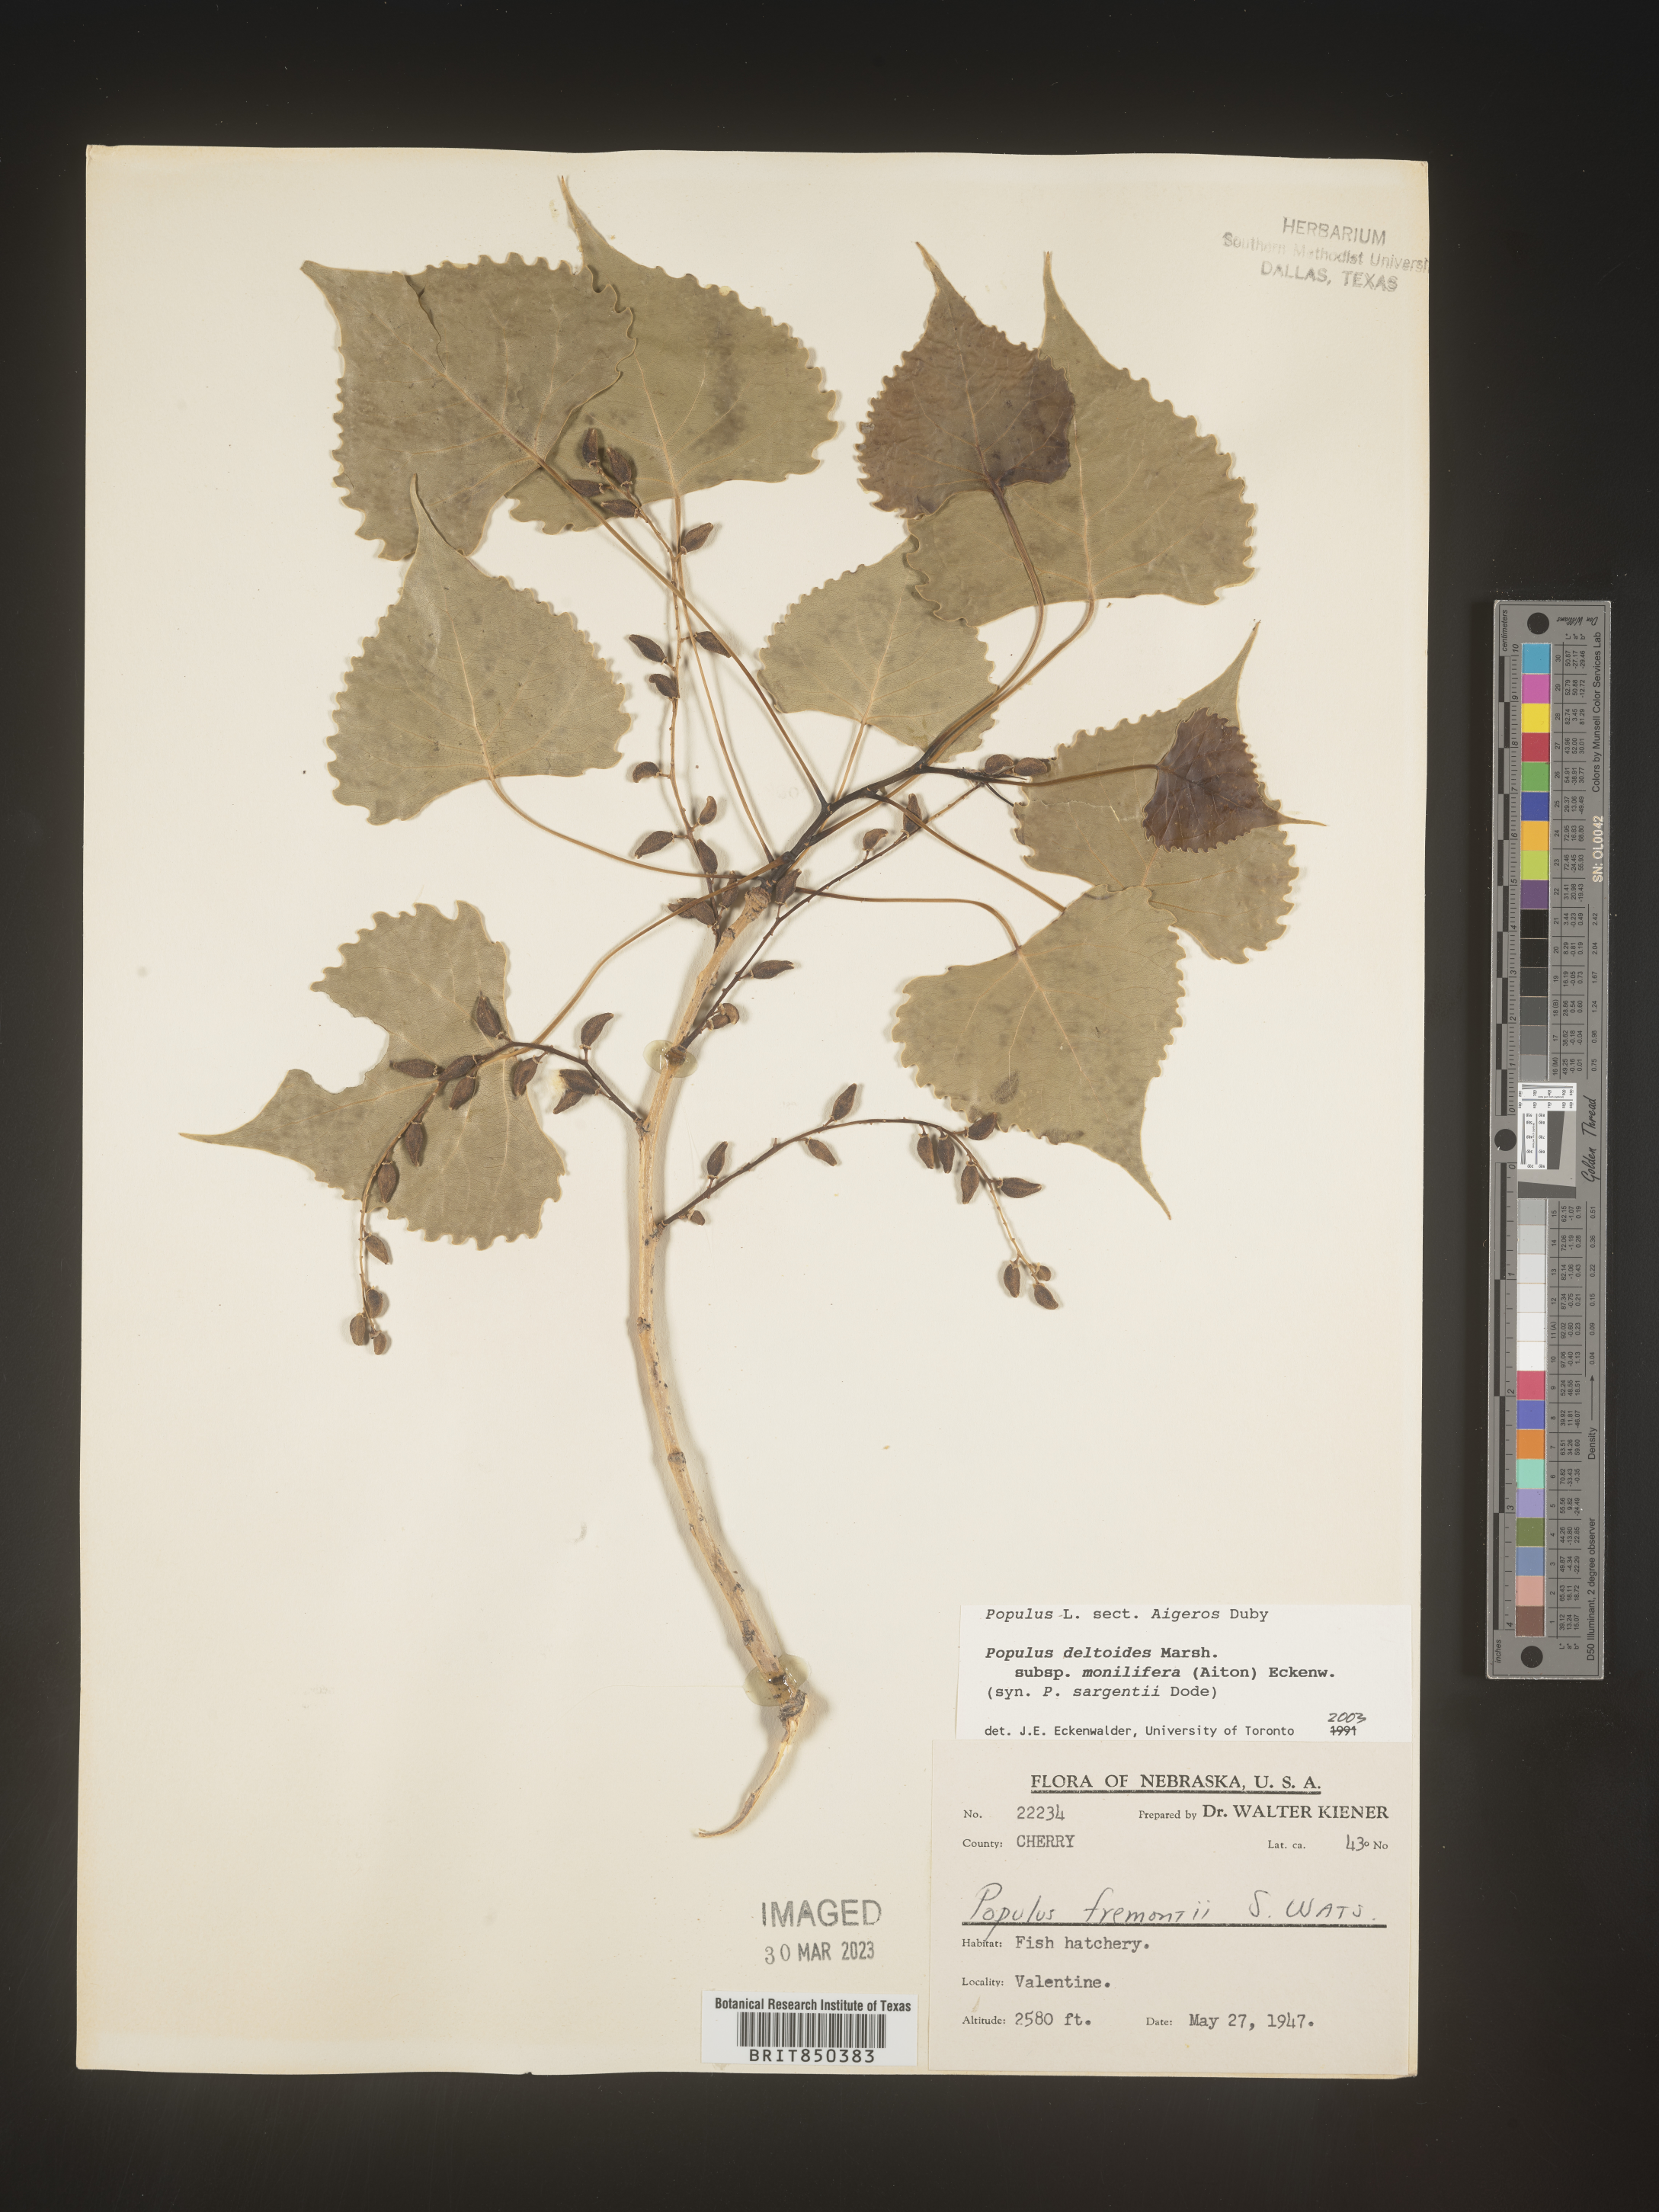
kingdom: Plantae
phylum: Tracheophyta
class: Magnoliopsida
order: Malpighiales
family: Salicaceae
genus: Populus
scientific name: Populus deltoides
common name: Eastern cottonwood
